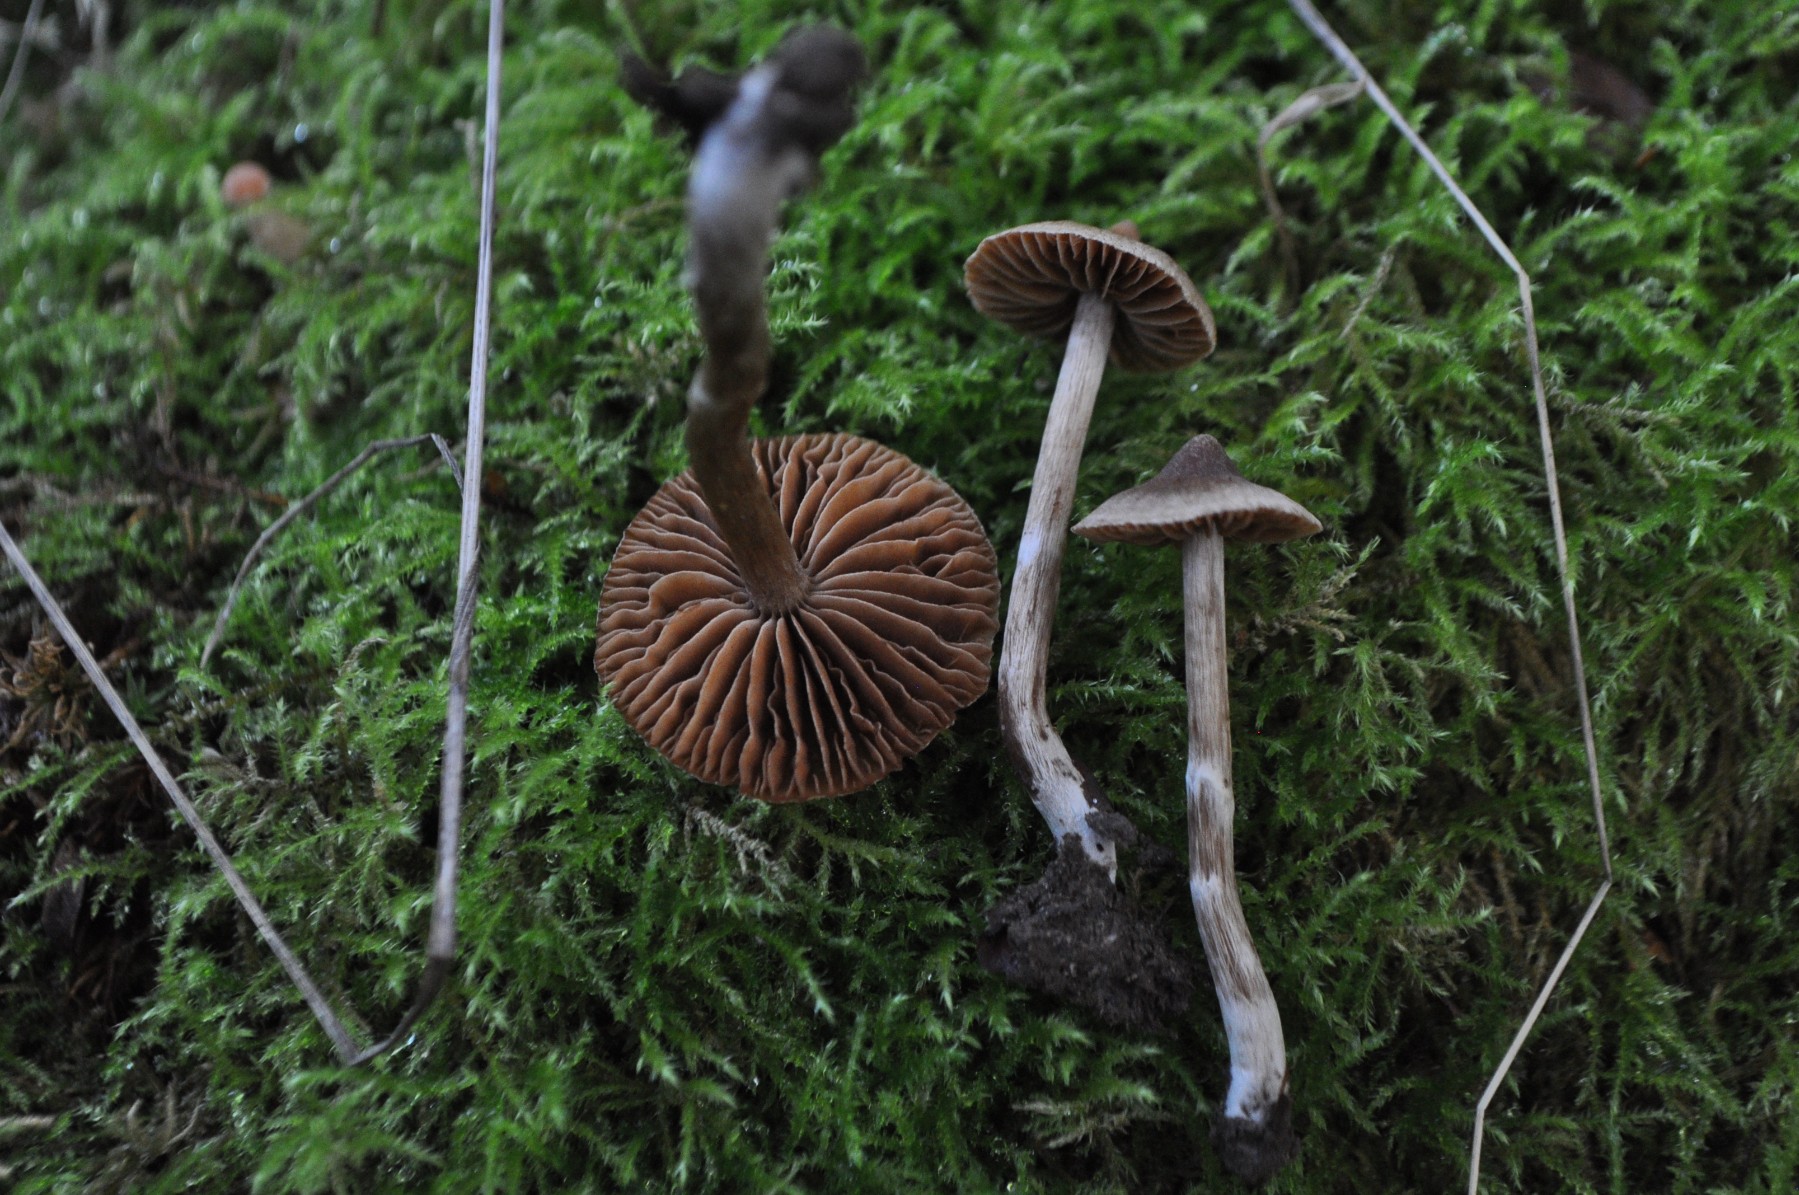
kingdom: Fungi
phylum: Basidiomycota
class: Agaricomycetes
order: Agaricales
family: Cortinariaceae
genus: Cortinarius
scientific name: Cortinarius
